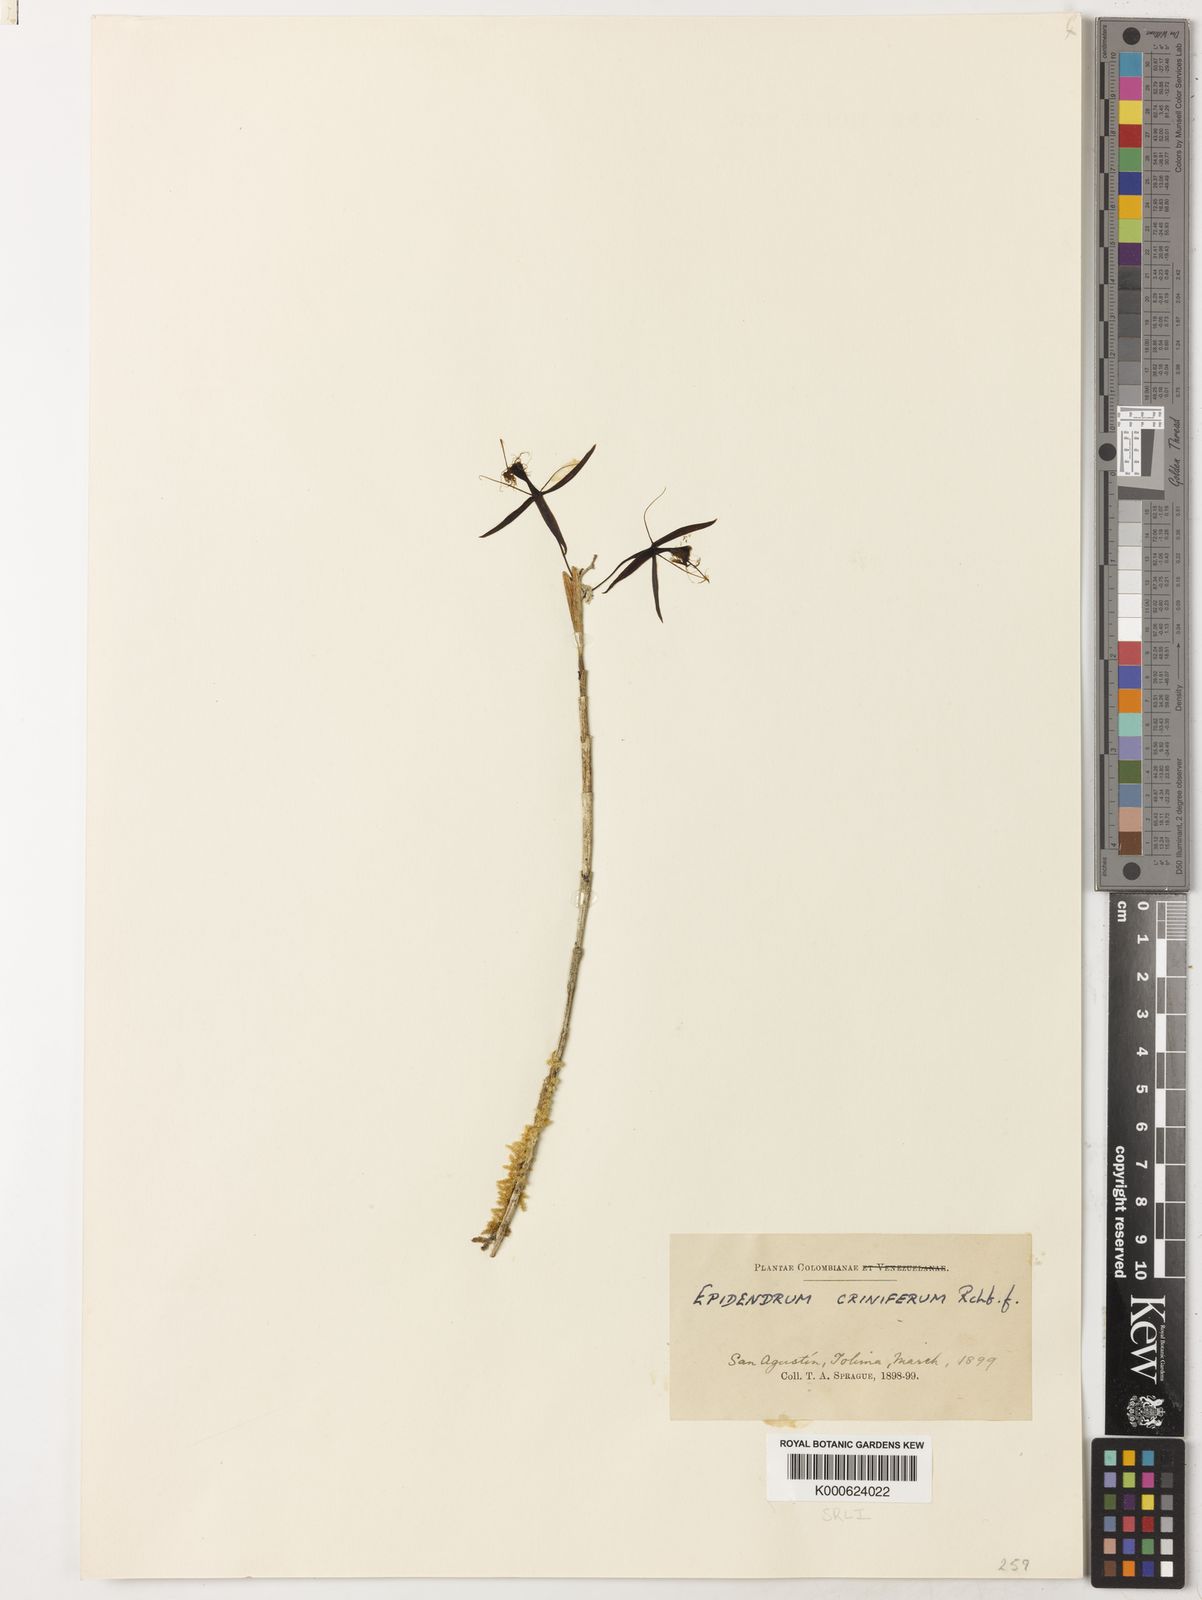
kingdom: Plantae
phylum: Tracheophyta
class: Liliopsida
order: Asparagales
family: Orchidaceae
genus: Epidendrum
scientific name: Epidendrum criniferum
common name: Bract carrying epidendrum
